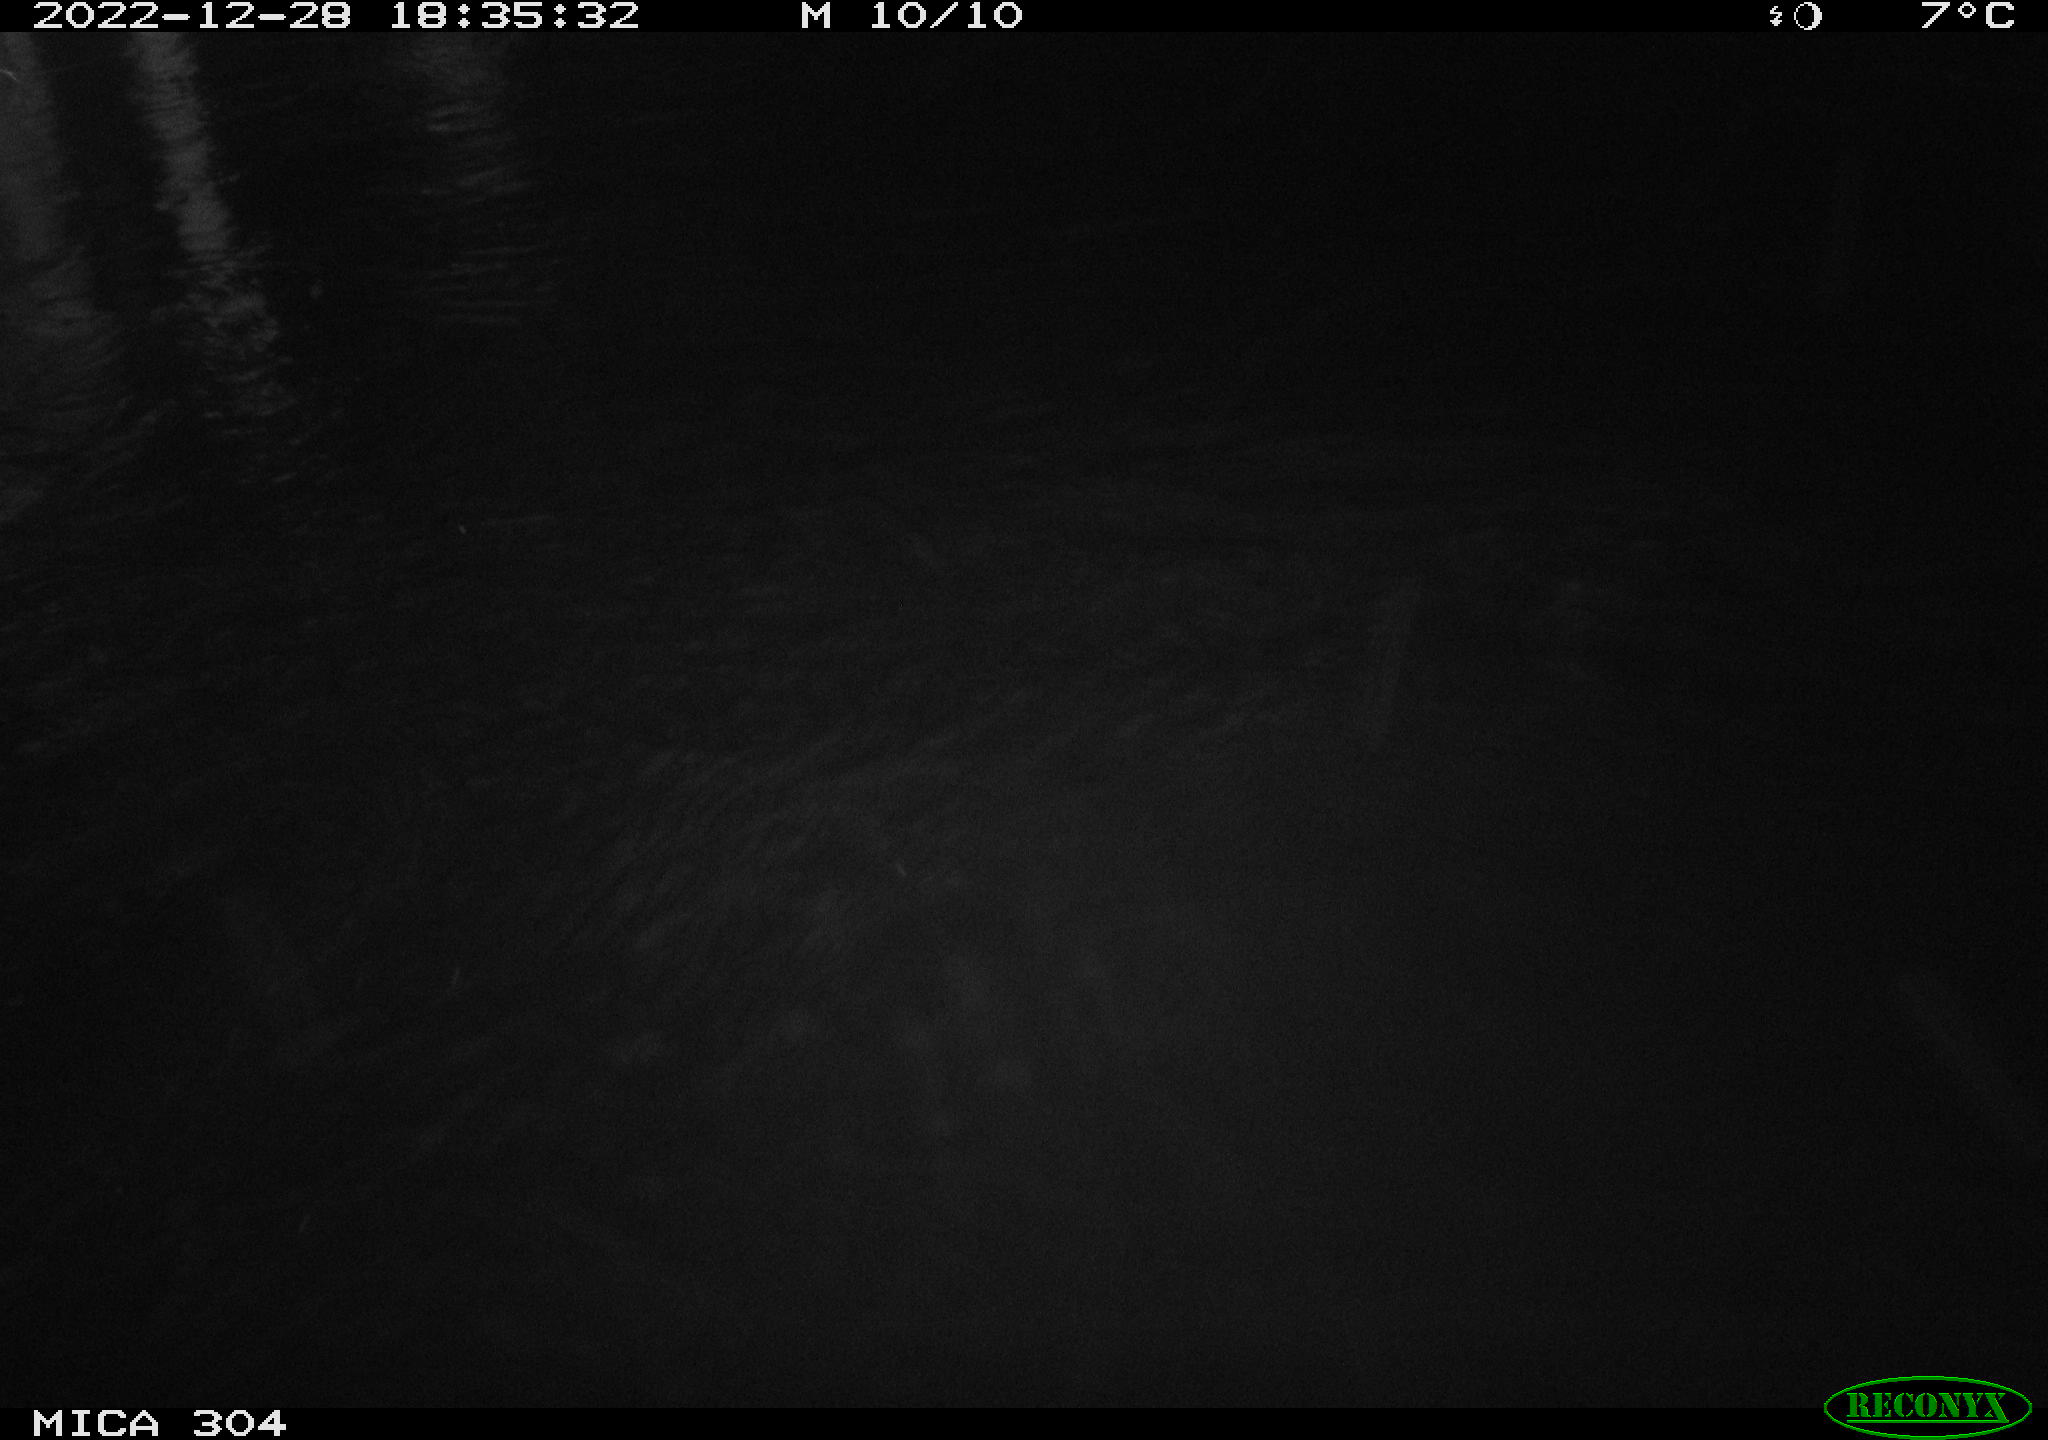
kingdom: Animalia
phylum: Chordata
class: Aves
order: Gruiformes
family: Rallidae
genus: Fulica
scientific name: Fulica atra
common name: Eurasian coot
